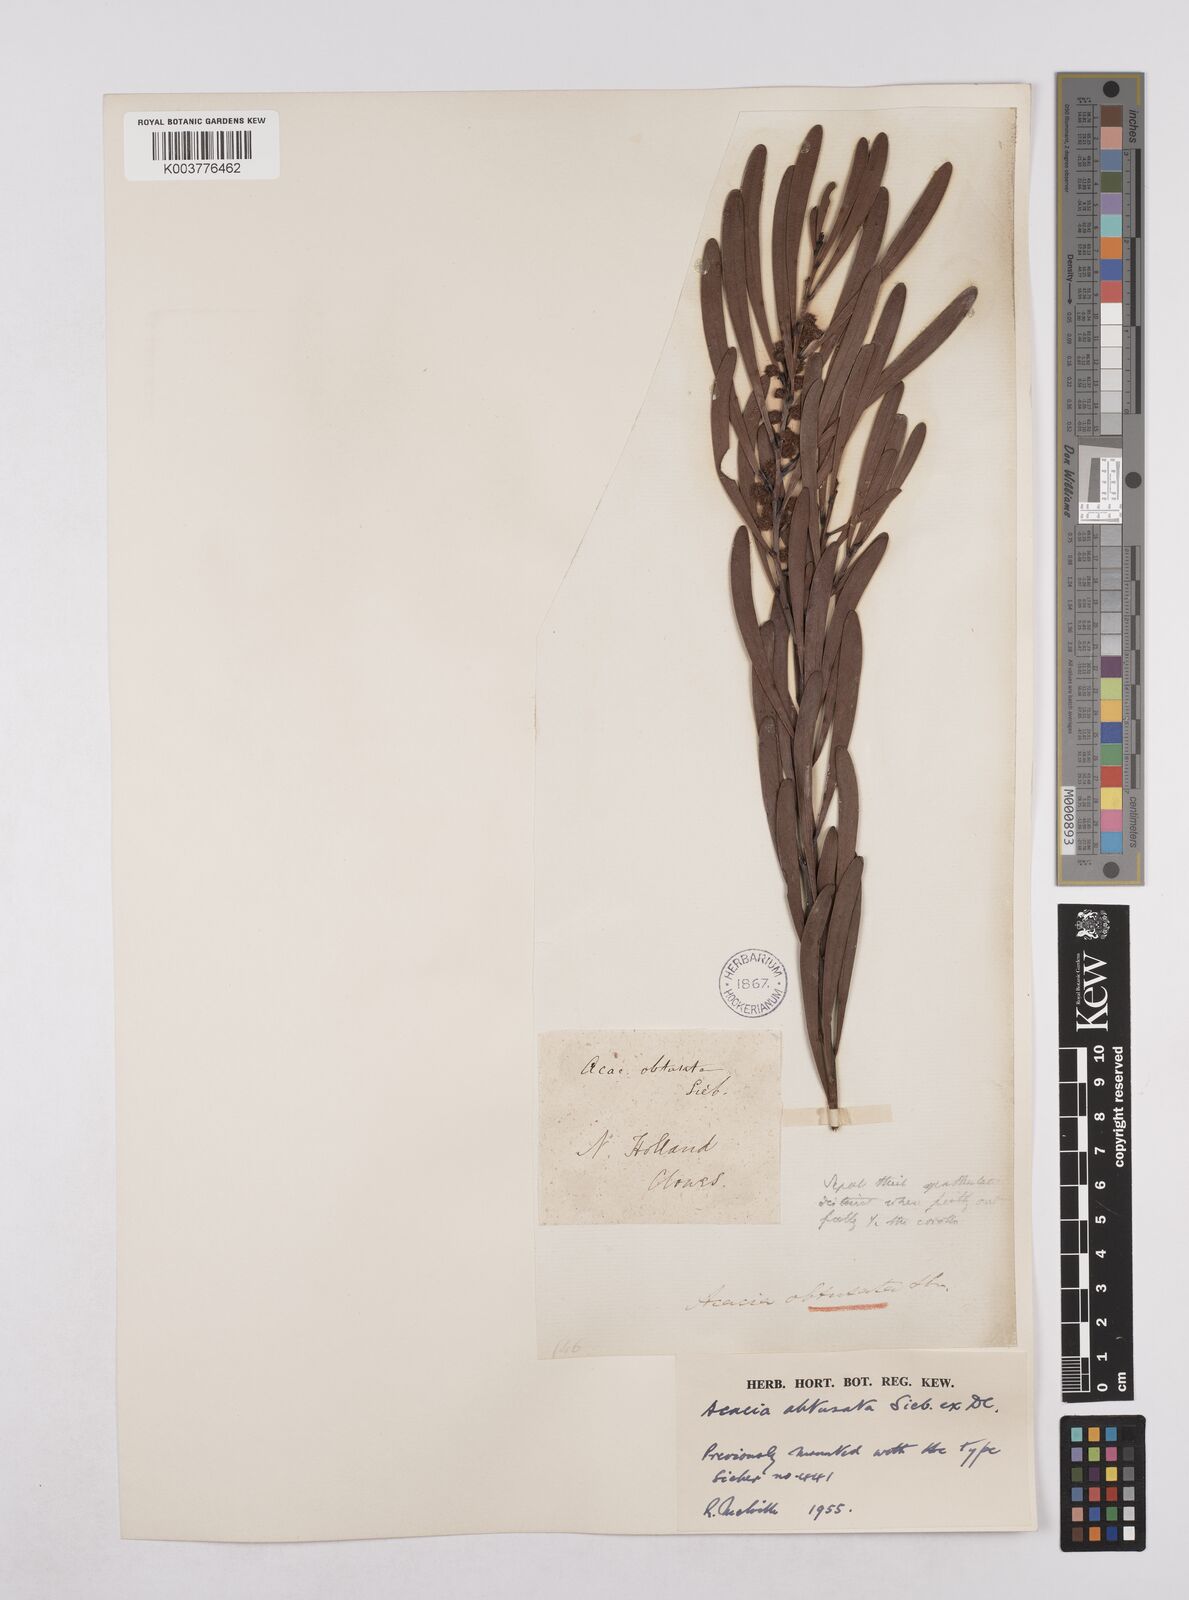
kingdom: Plantae
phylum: Tracheophyta
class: Magnoliopsida
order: Fabales
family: Fabaceae
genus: Acacia
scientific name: Acacia obtusata
